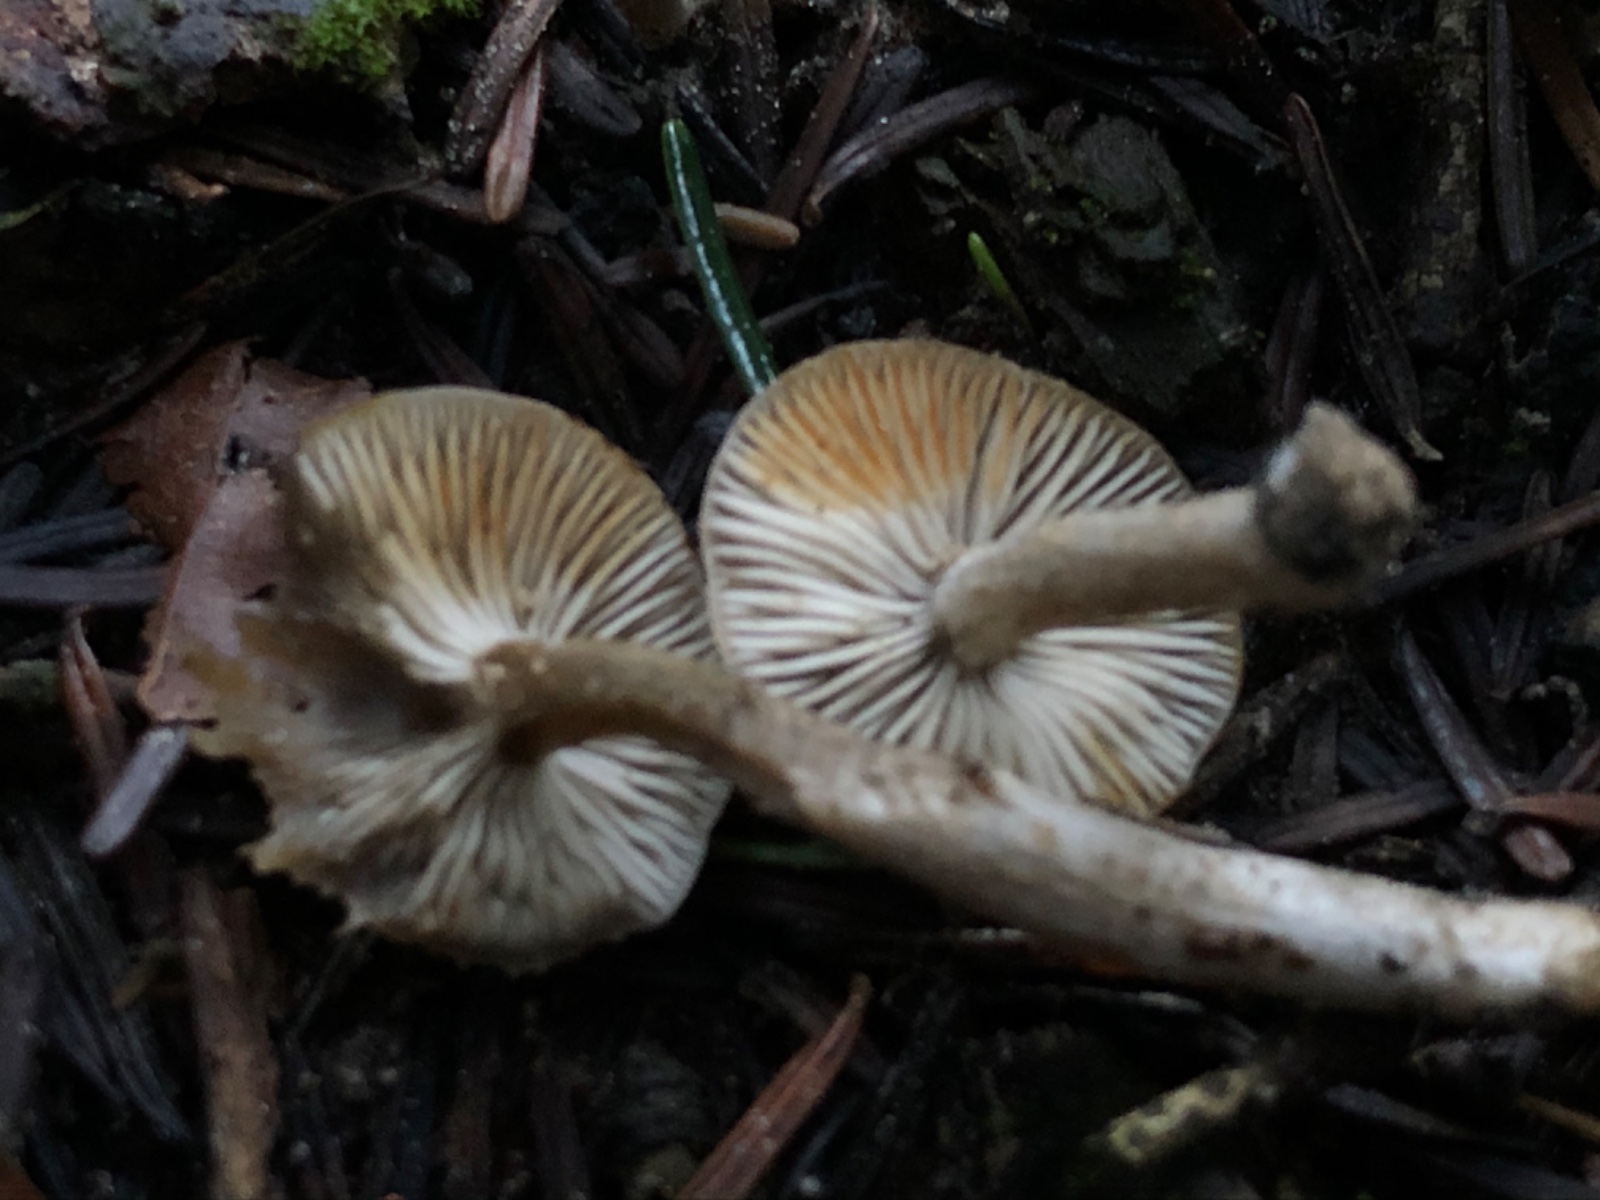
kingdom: Fungi
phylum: Basidiomycota
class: Agaricomycetes
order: Agaricales
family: Lyophyllaceae
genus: Lyophyllum
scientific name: Lyophyllum aemiliae
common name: orangeplettet gråblad
